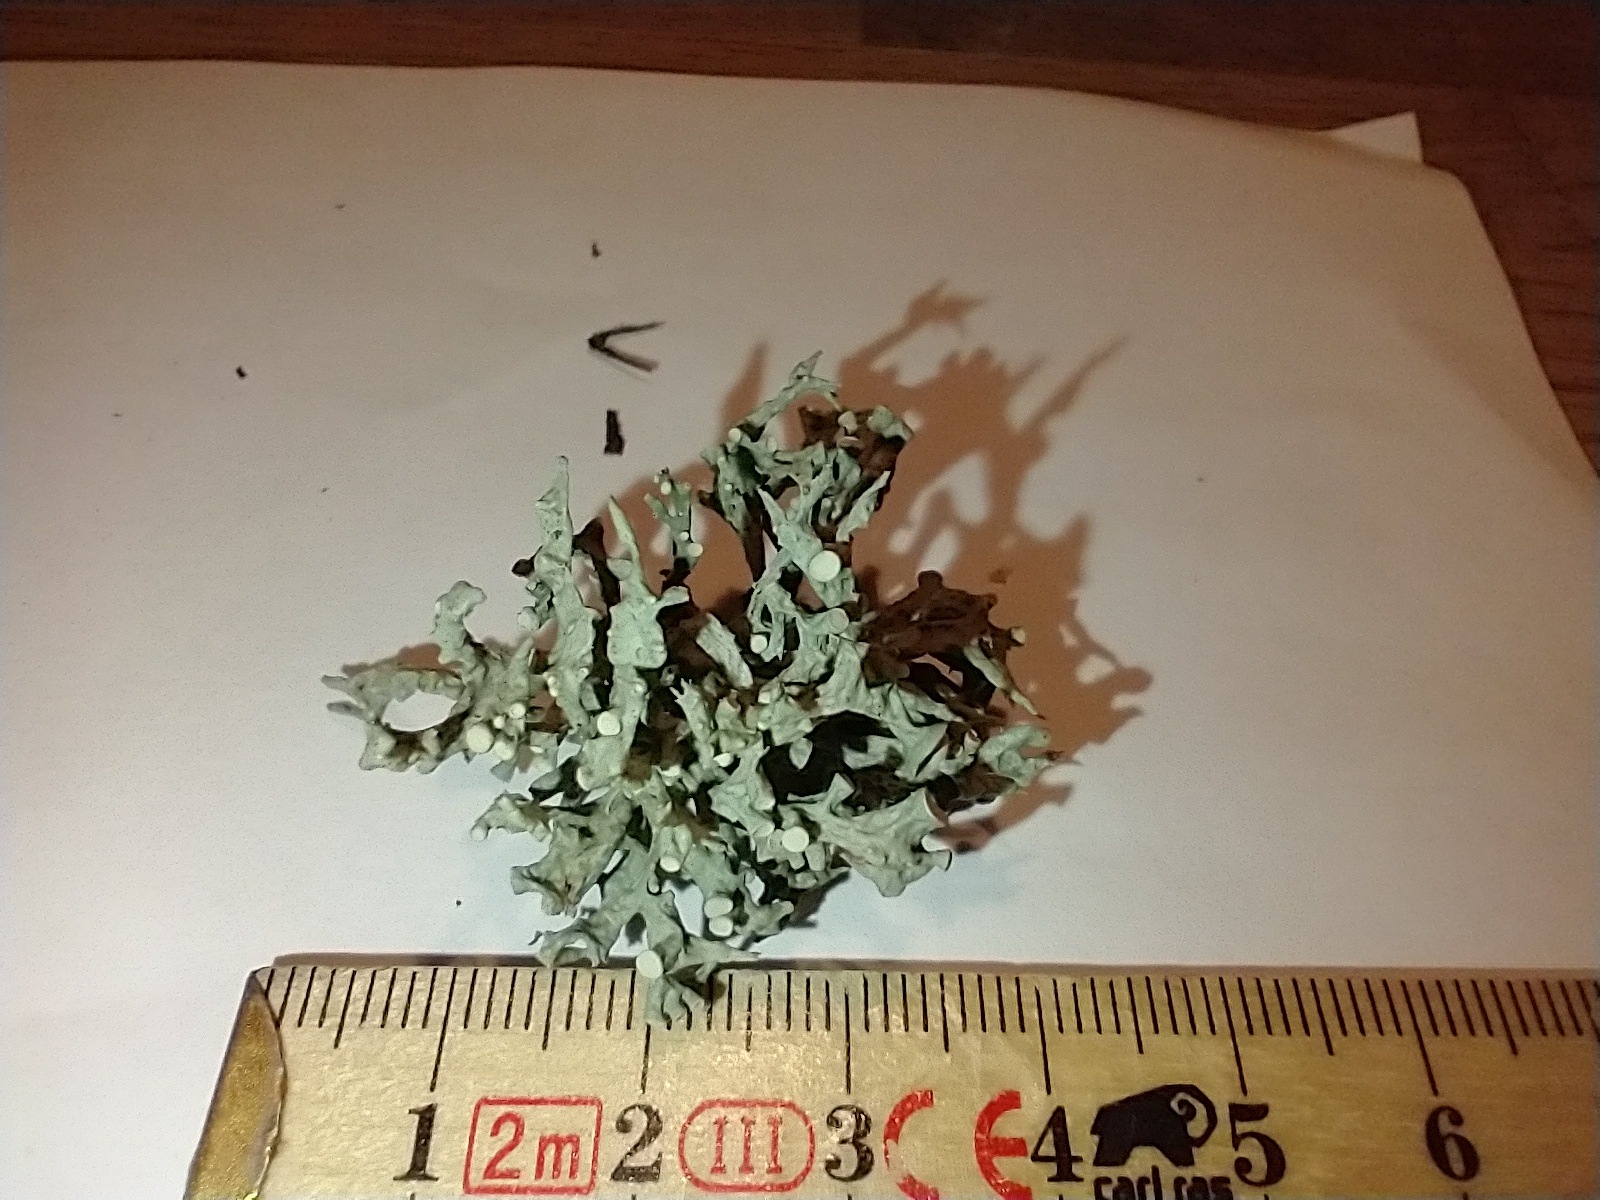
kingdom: Fungi
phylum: Ascomycota
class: Lecanoromycetes
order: Lecanorales
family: Ramalinaceae
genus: Ramalina
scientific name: Ramalina fastigiata
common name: tue-grenlav
